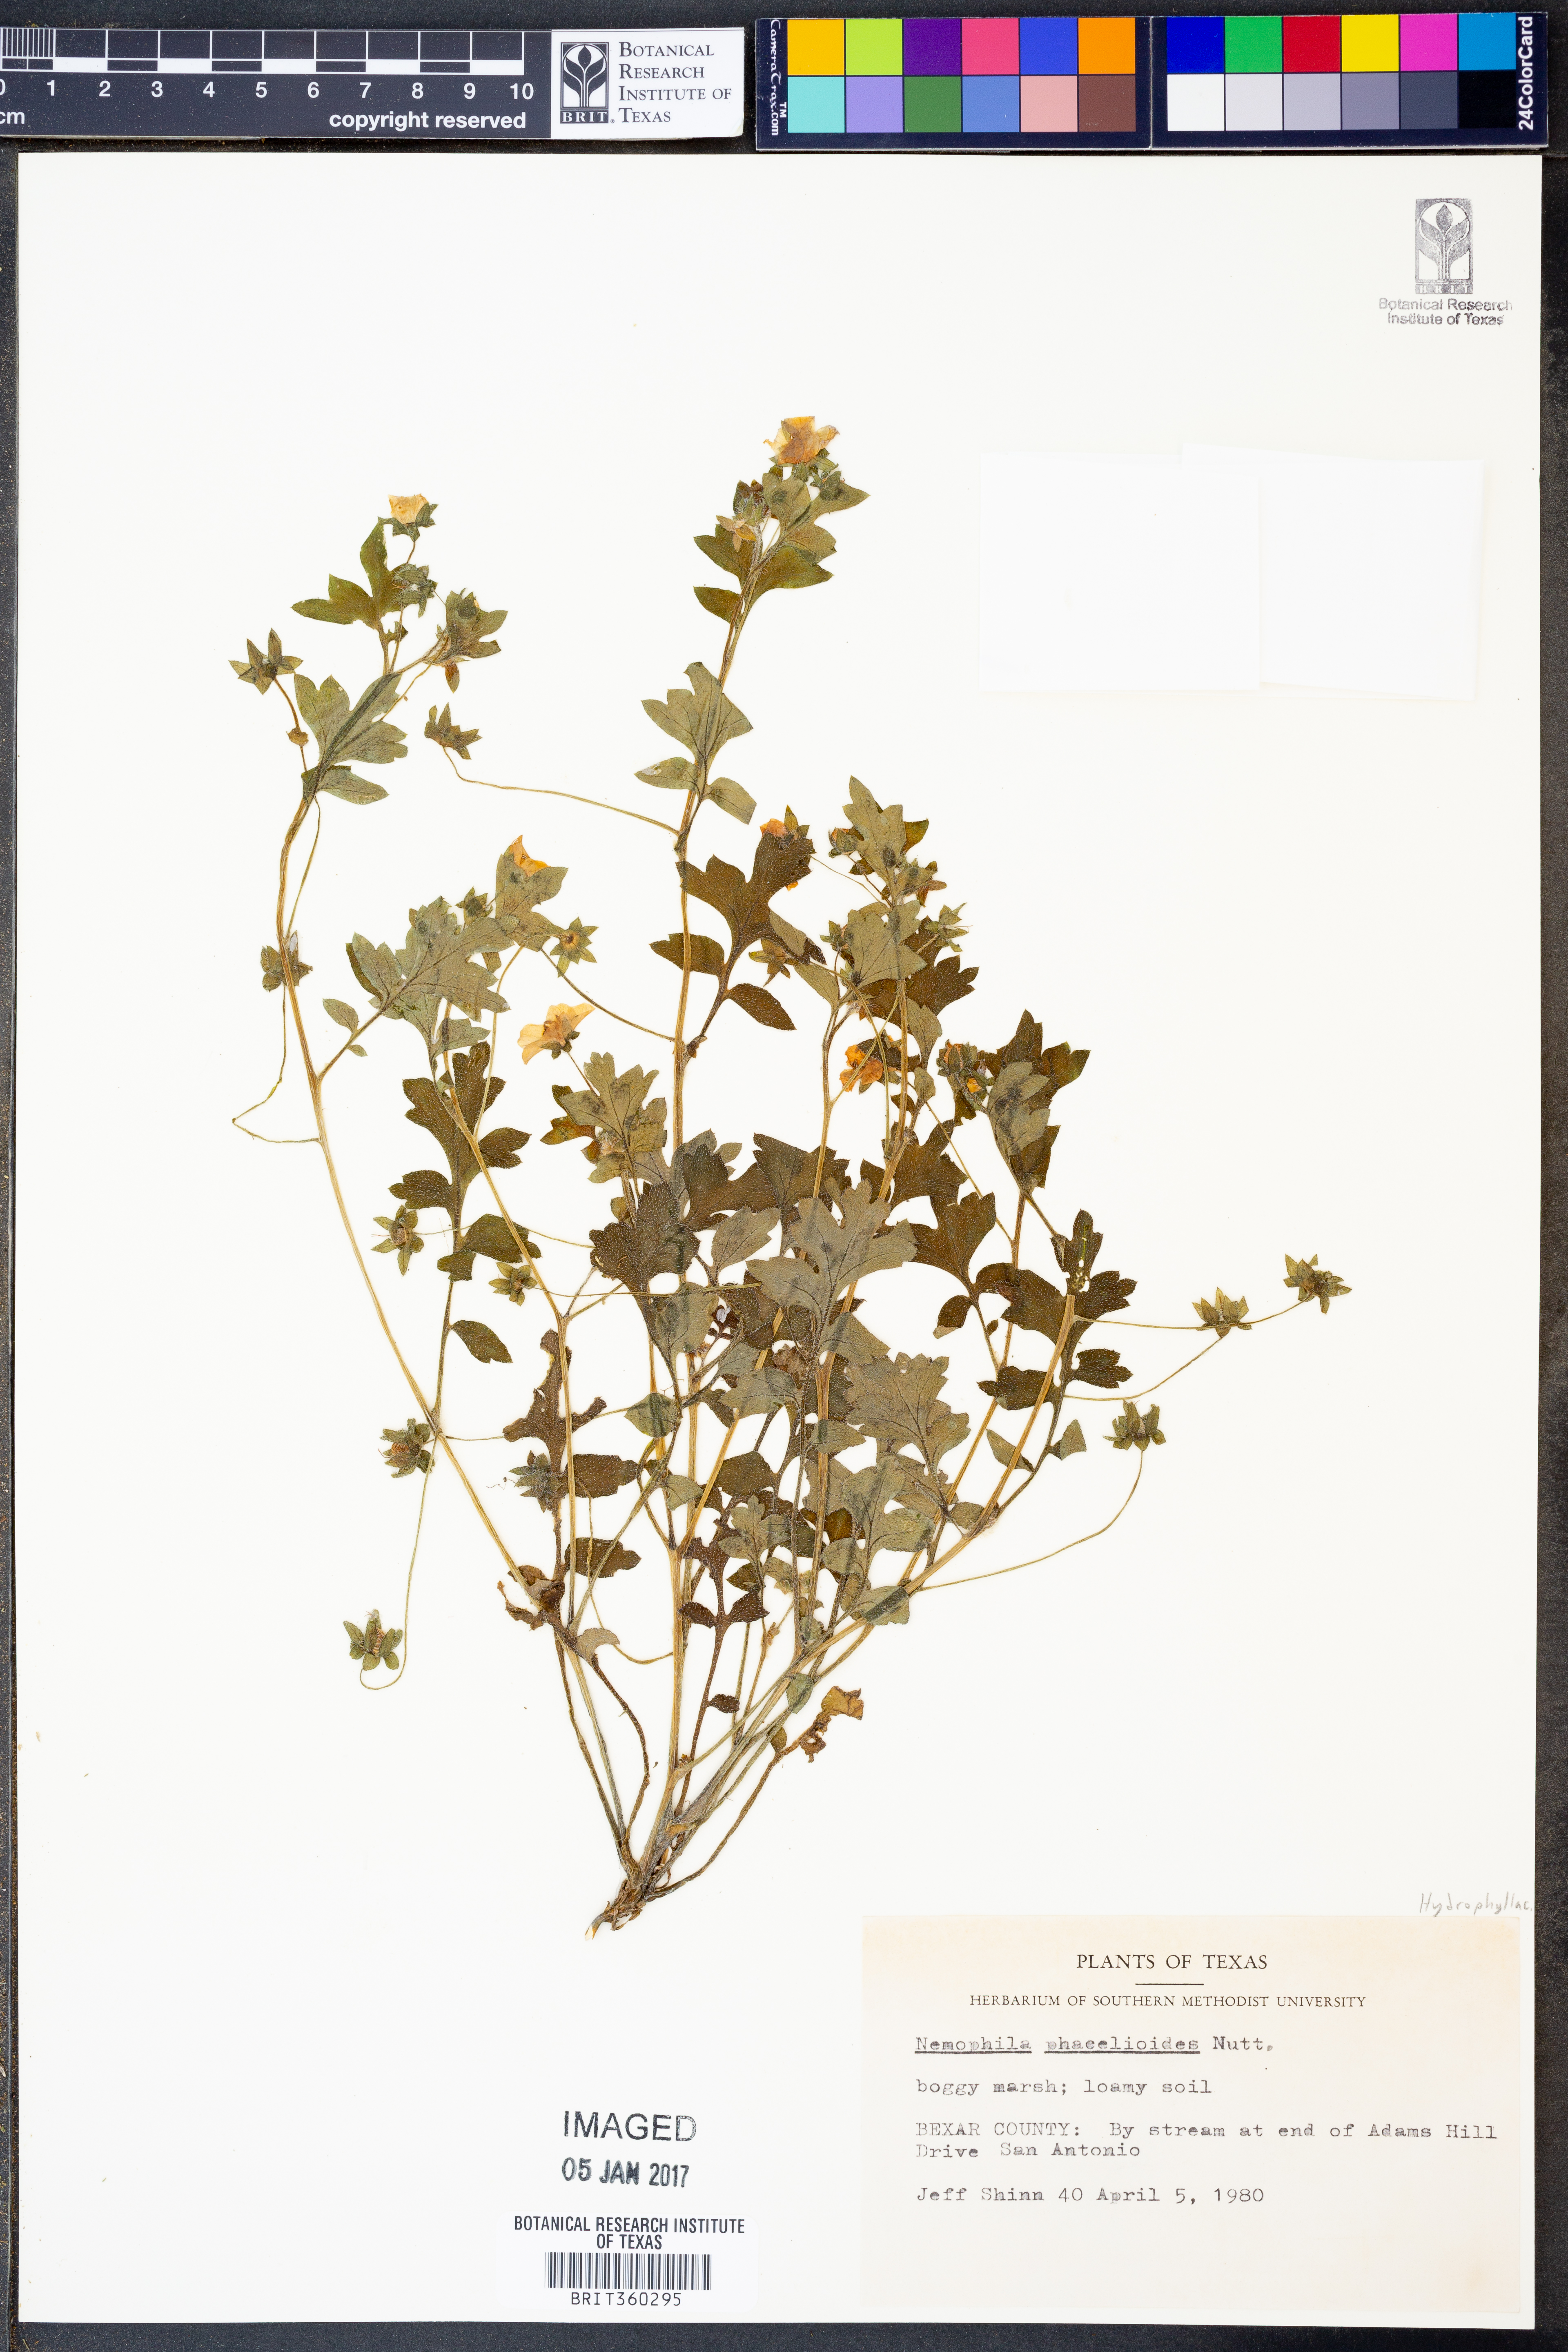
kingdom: Plantae
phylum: Tracheophyta
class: Magnoliopsida
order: Boraginales
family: Hydrophyllaceae
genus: Nemophila
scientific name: Nemophila phacelioides
